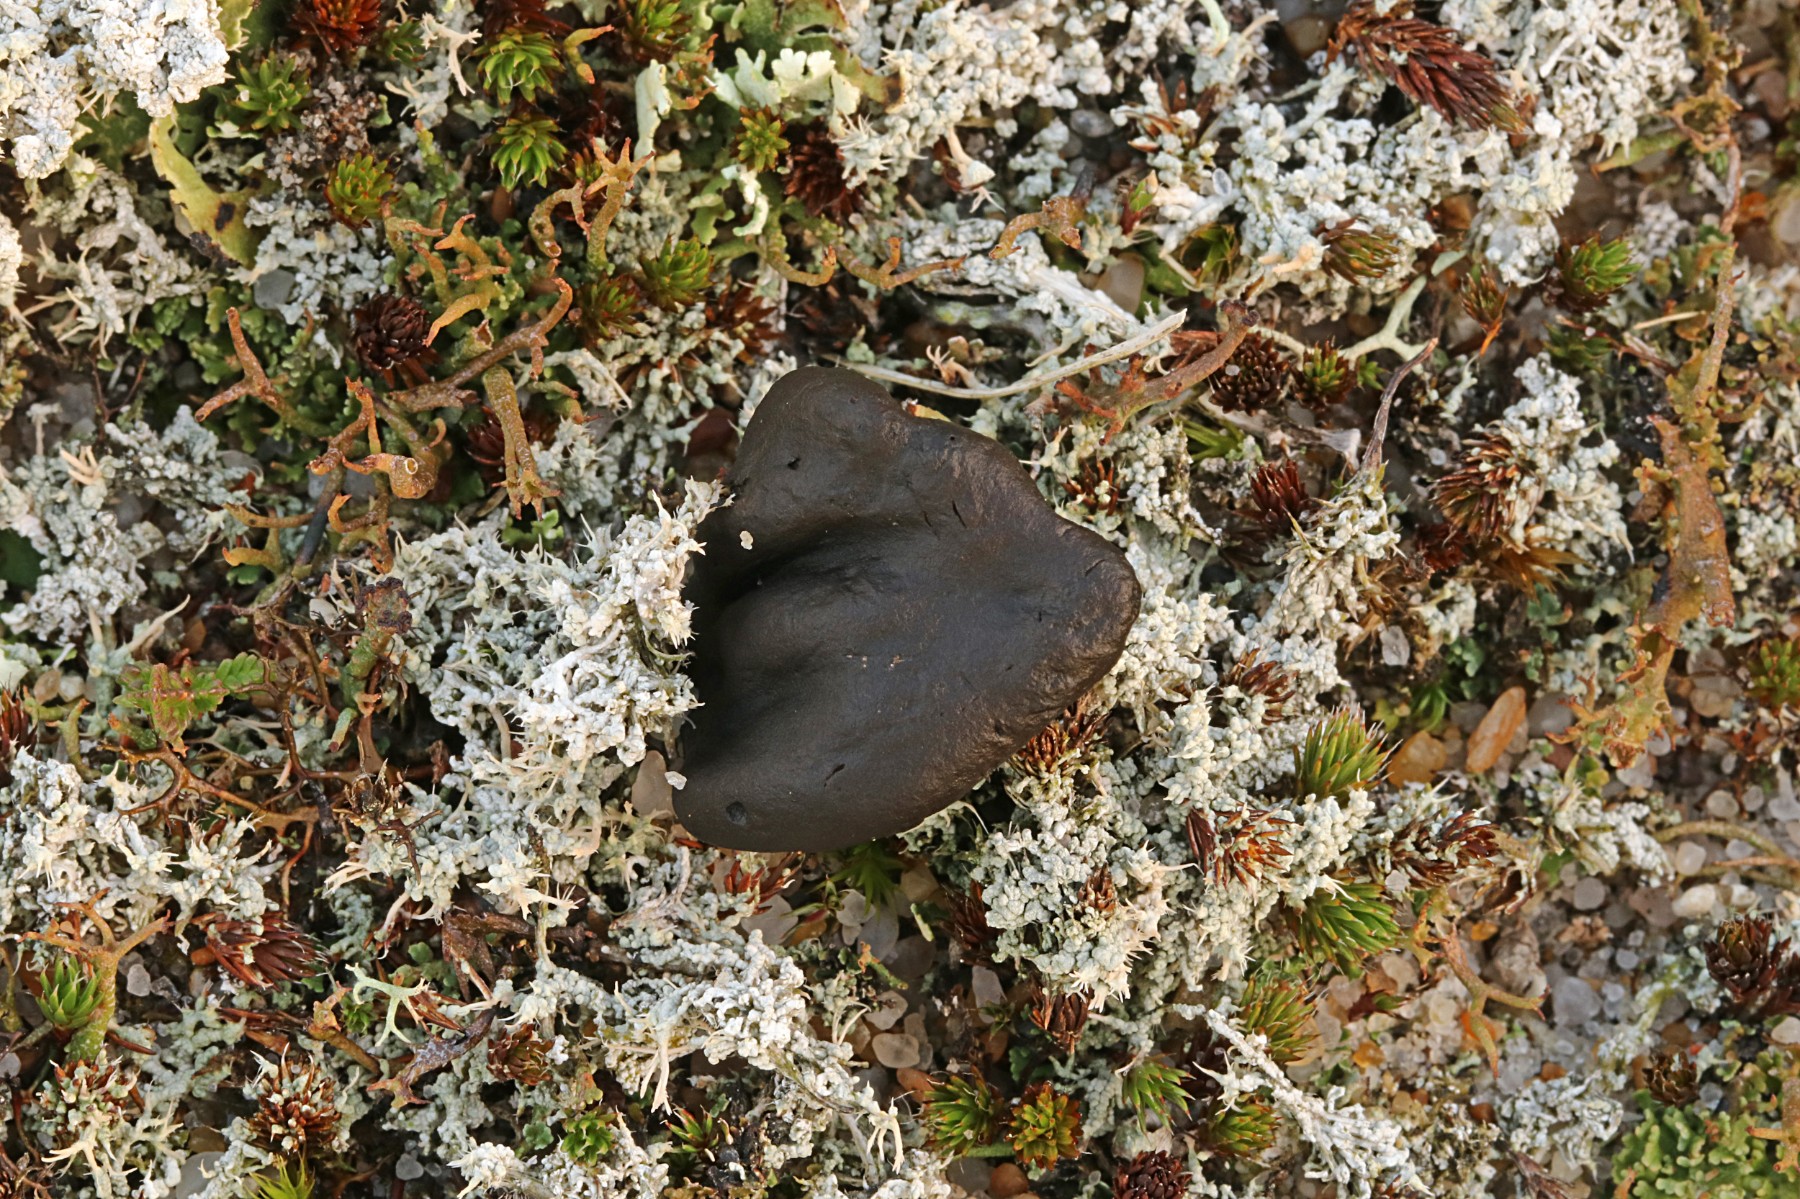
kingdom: Fungi
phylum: Ascomycota
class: Geoglossomycetes
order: Geoglossales
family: Geoglossaceae
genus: Sabuloglossum
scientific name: Sabuloglossum arenarium
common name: klit-jordtunge
